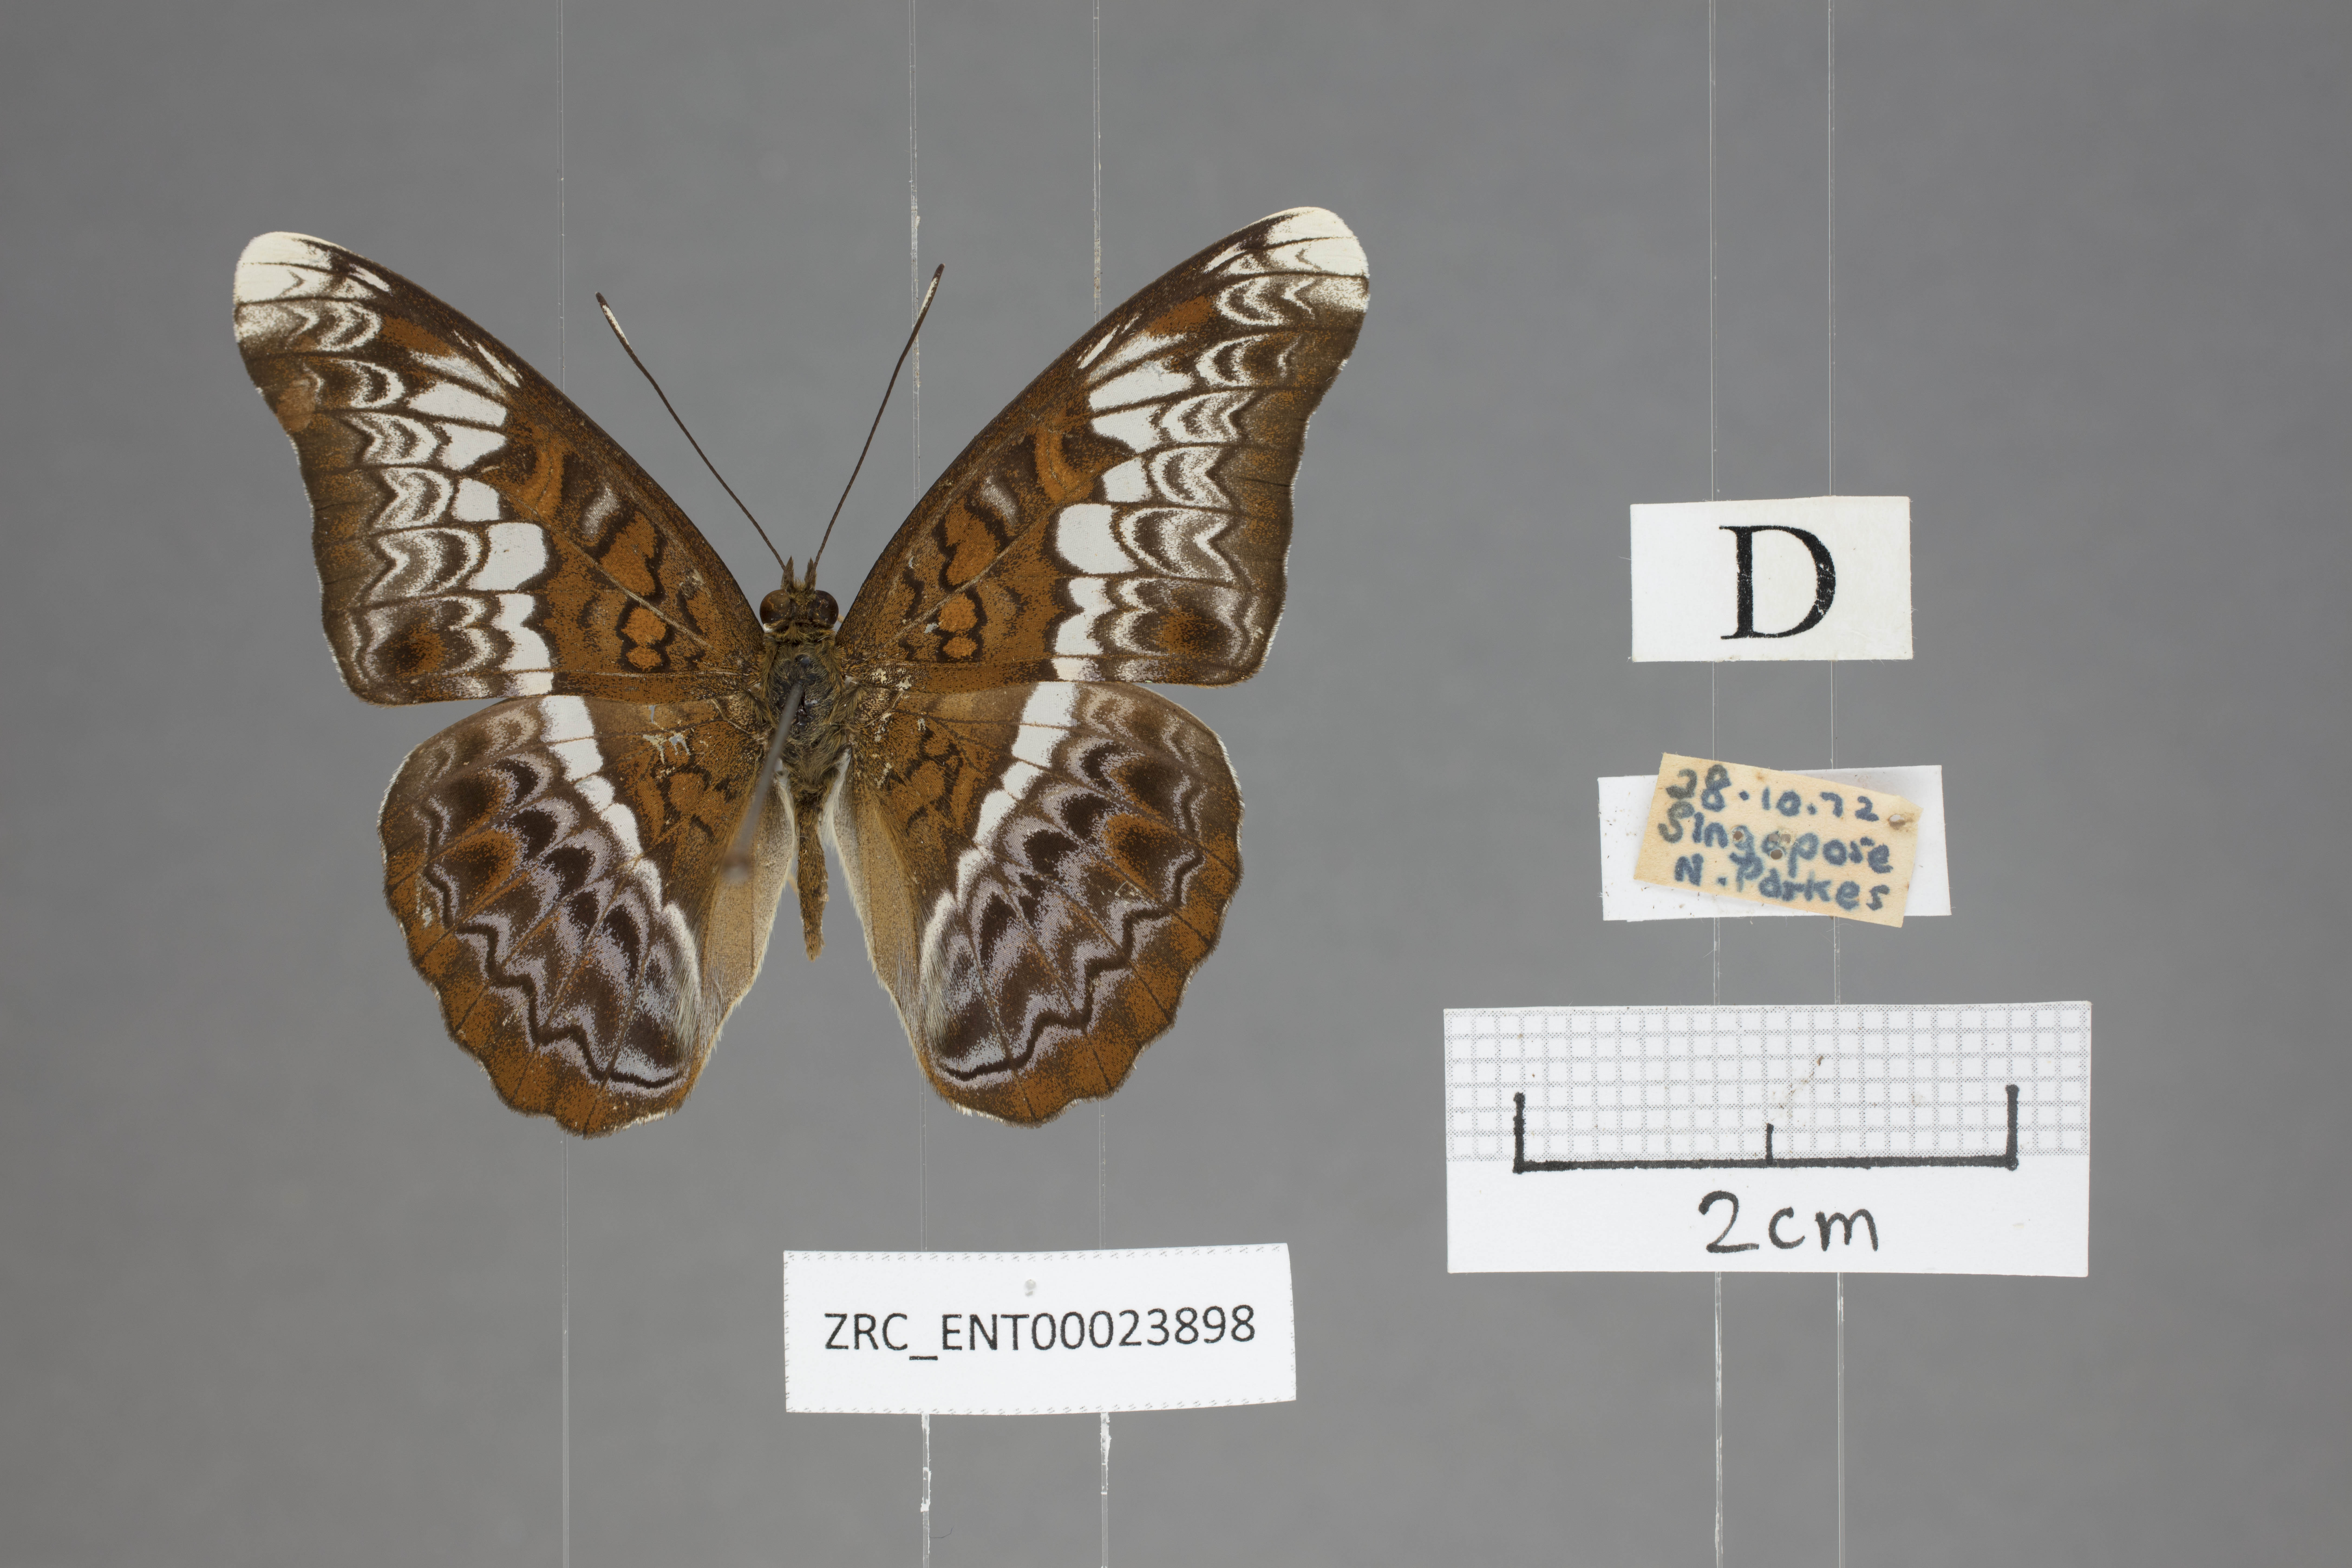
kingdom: Animalia
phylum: Arthropoda
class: Insecta
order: Lepidoptera
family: Nymphalidae
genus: Lebadea
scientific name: Lebadea martha
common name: Knight
